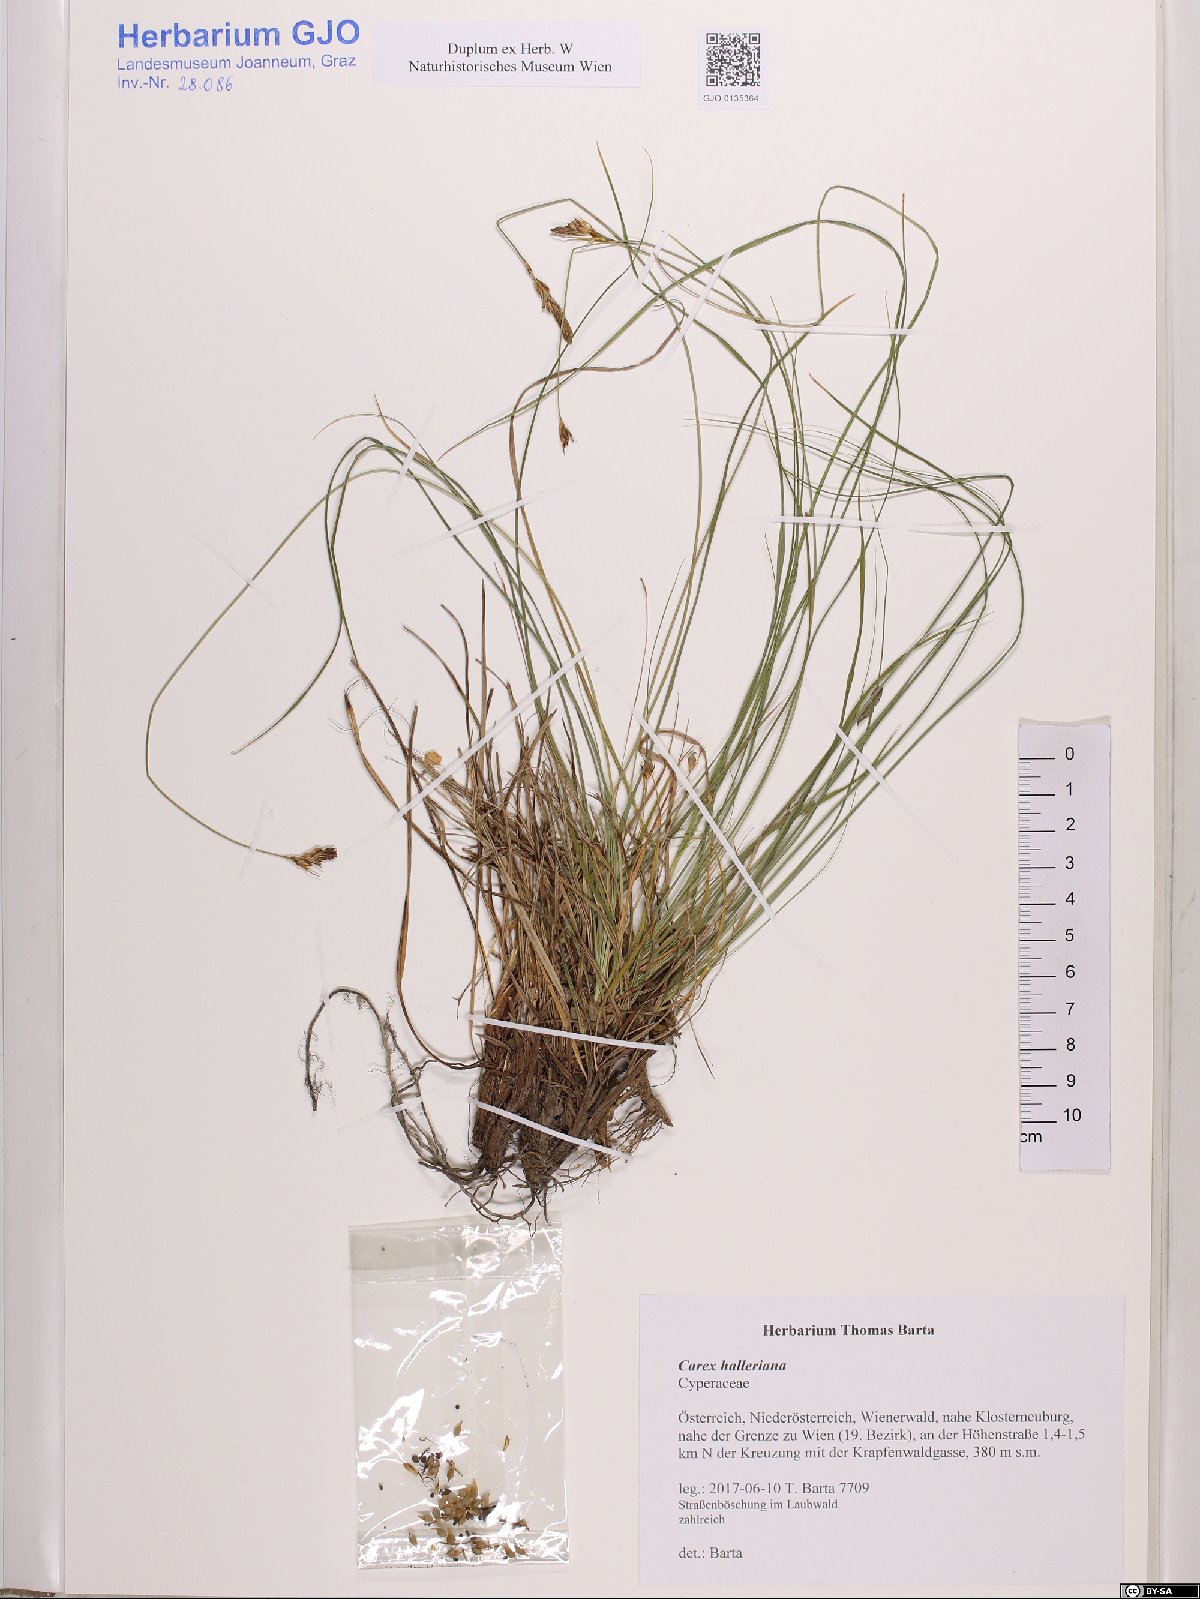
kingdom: Plantae
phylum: Tracheophyta
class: Liliopsida
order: Poales
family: Cyperaceae
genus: Carex
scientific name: Carex halleriana
